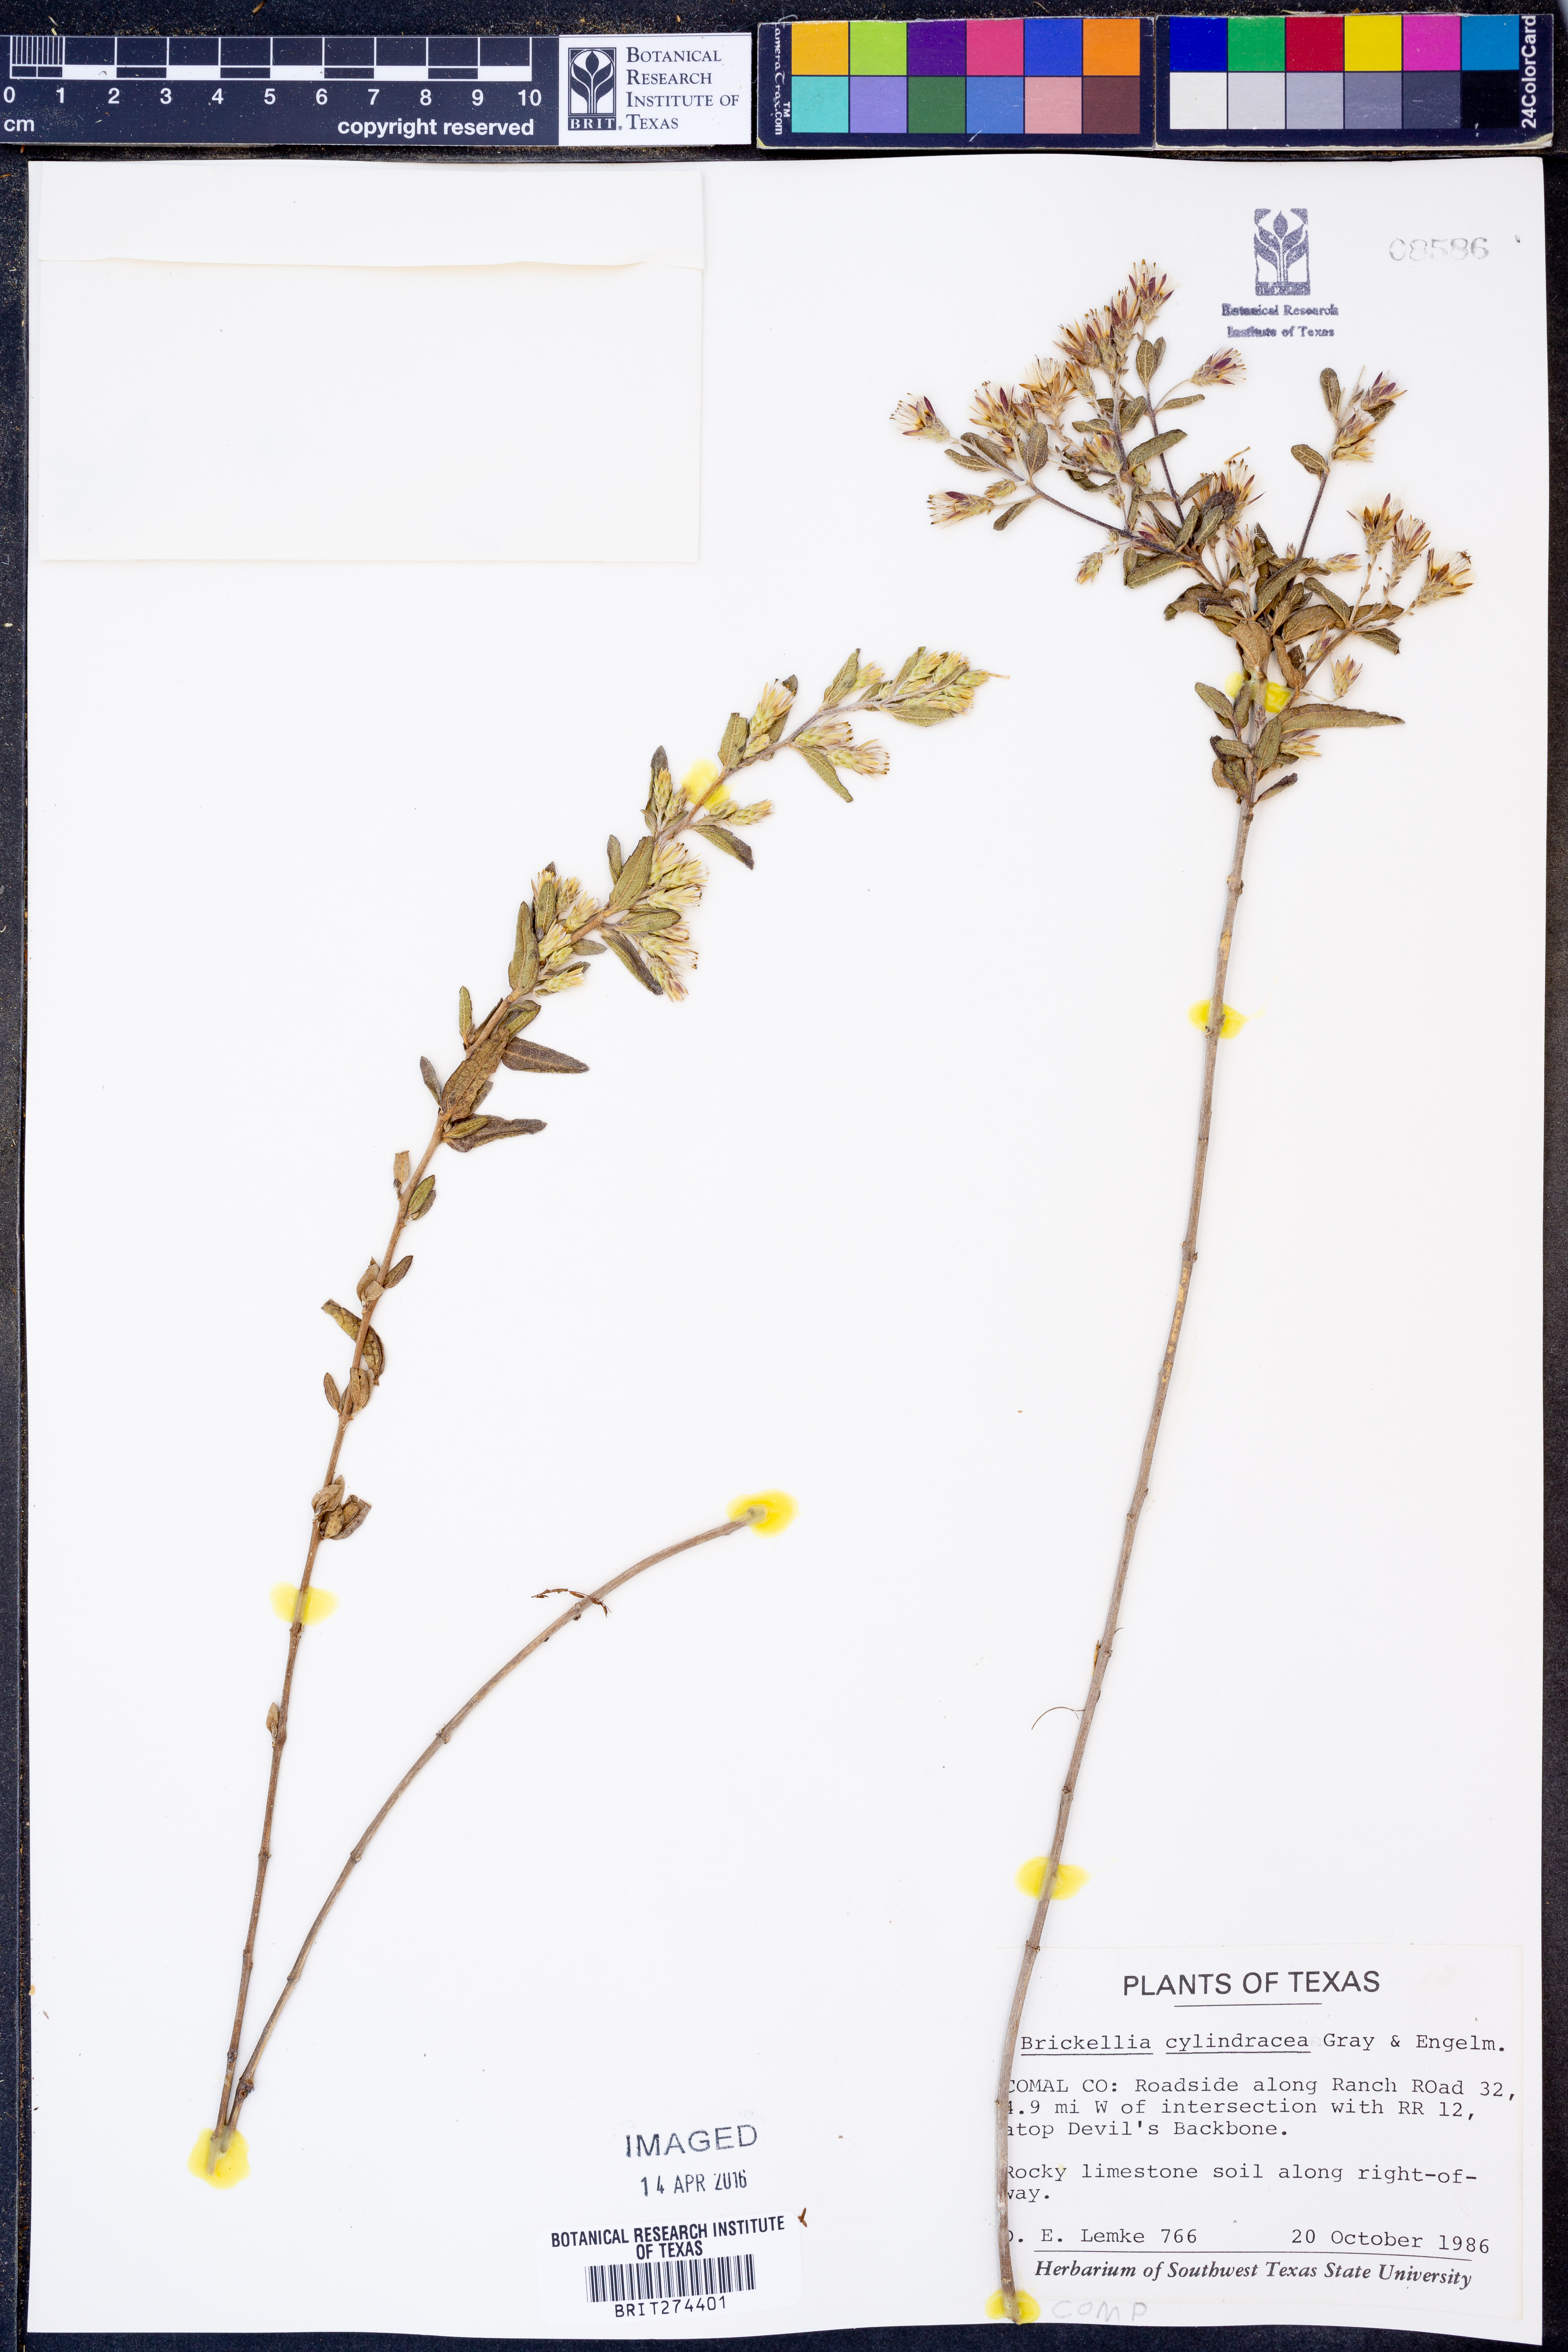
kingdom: Plantae
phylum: Tracheophyta
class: Magnoliopsida
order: Asterales
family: Asteraceae
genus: Brickellia
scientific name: Brickellia cylindracea
